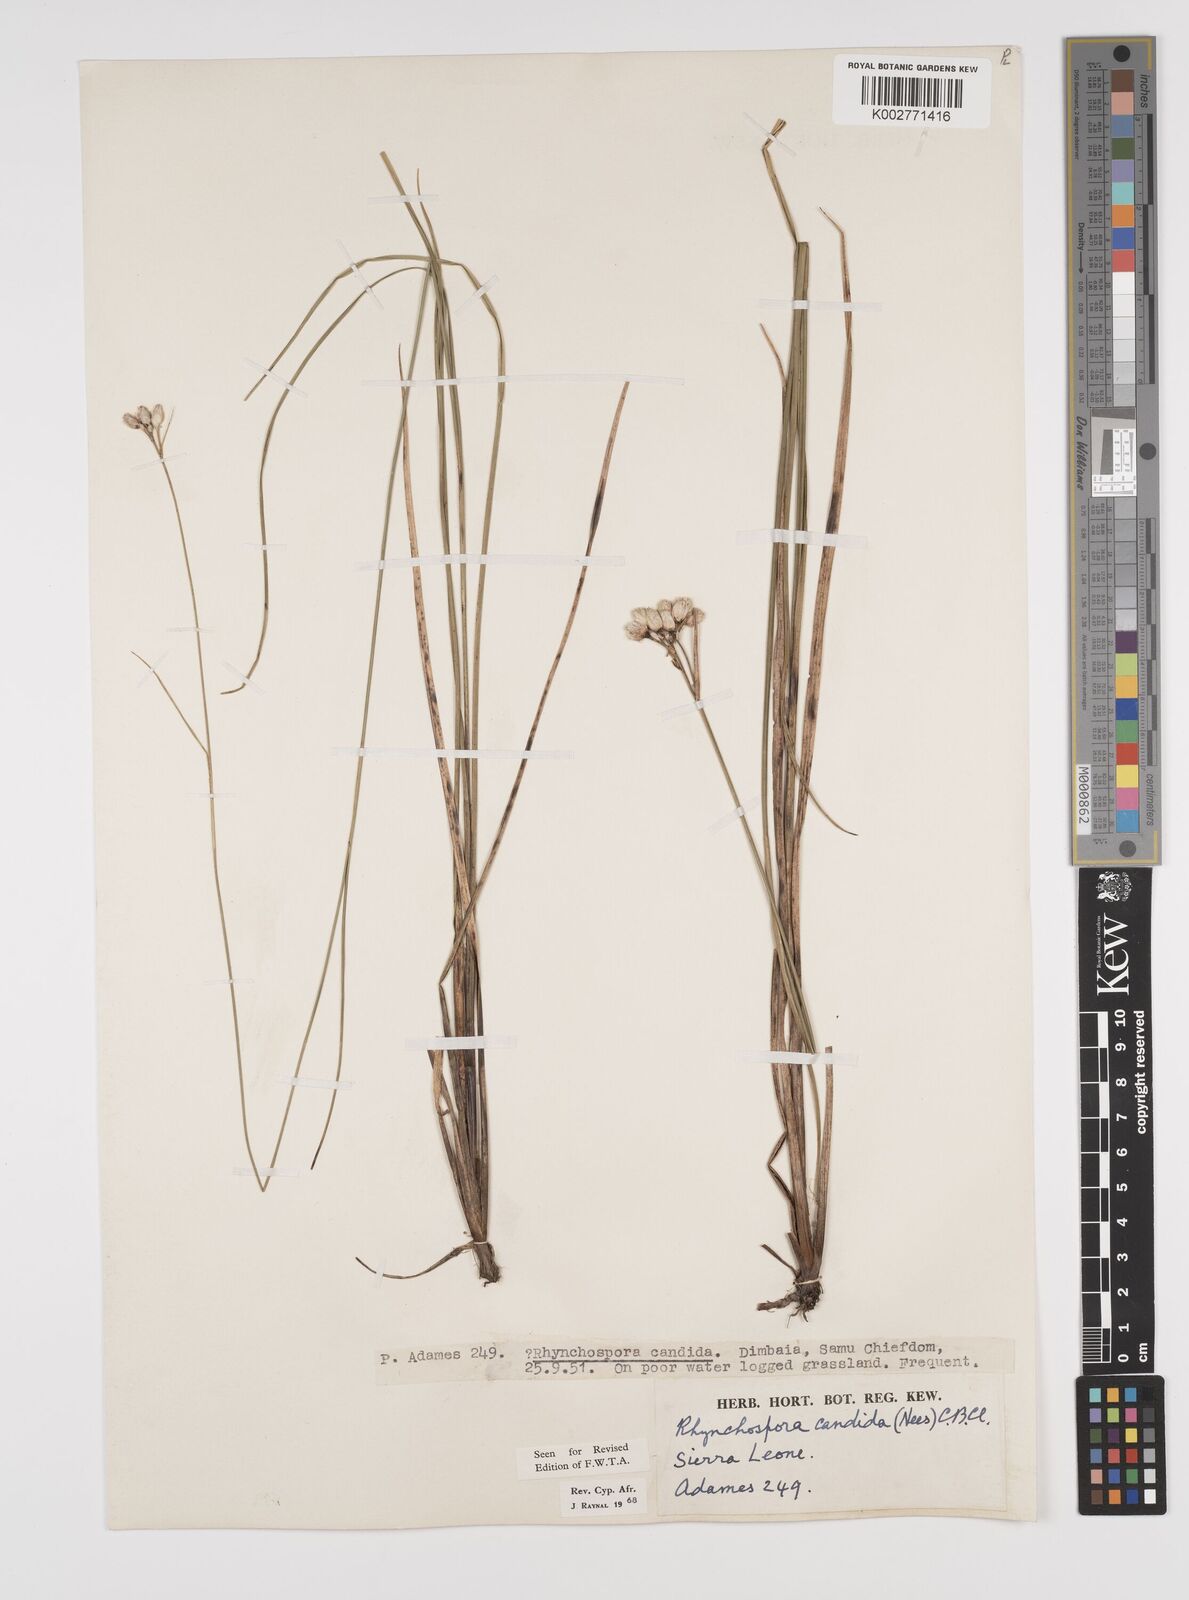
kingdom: Plantae
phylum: Tracheophyta
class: Liliopsida
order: Poales
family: Cyperaceae
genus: Rhynchospora
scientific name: Rhynchospora candida
